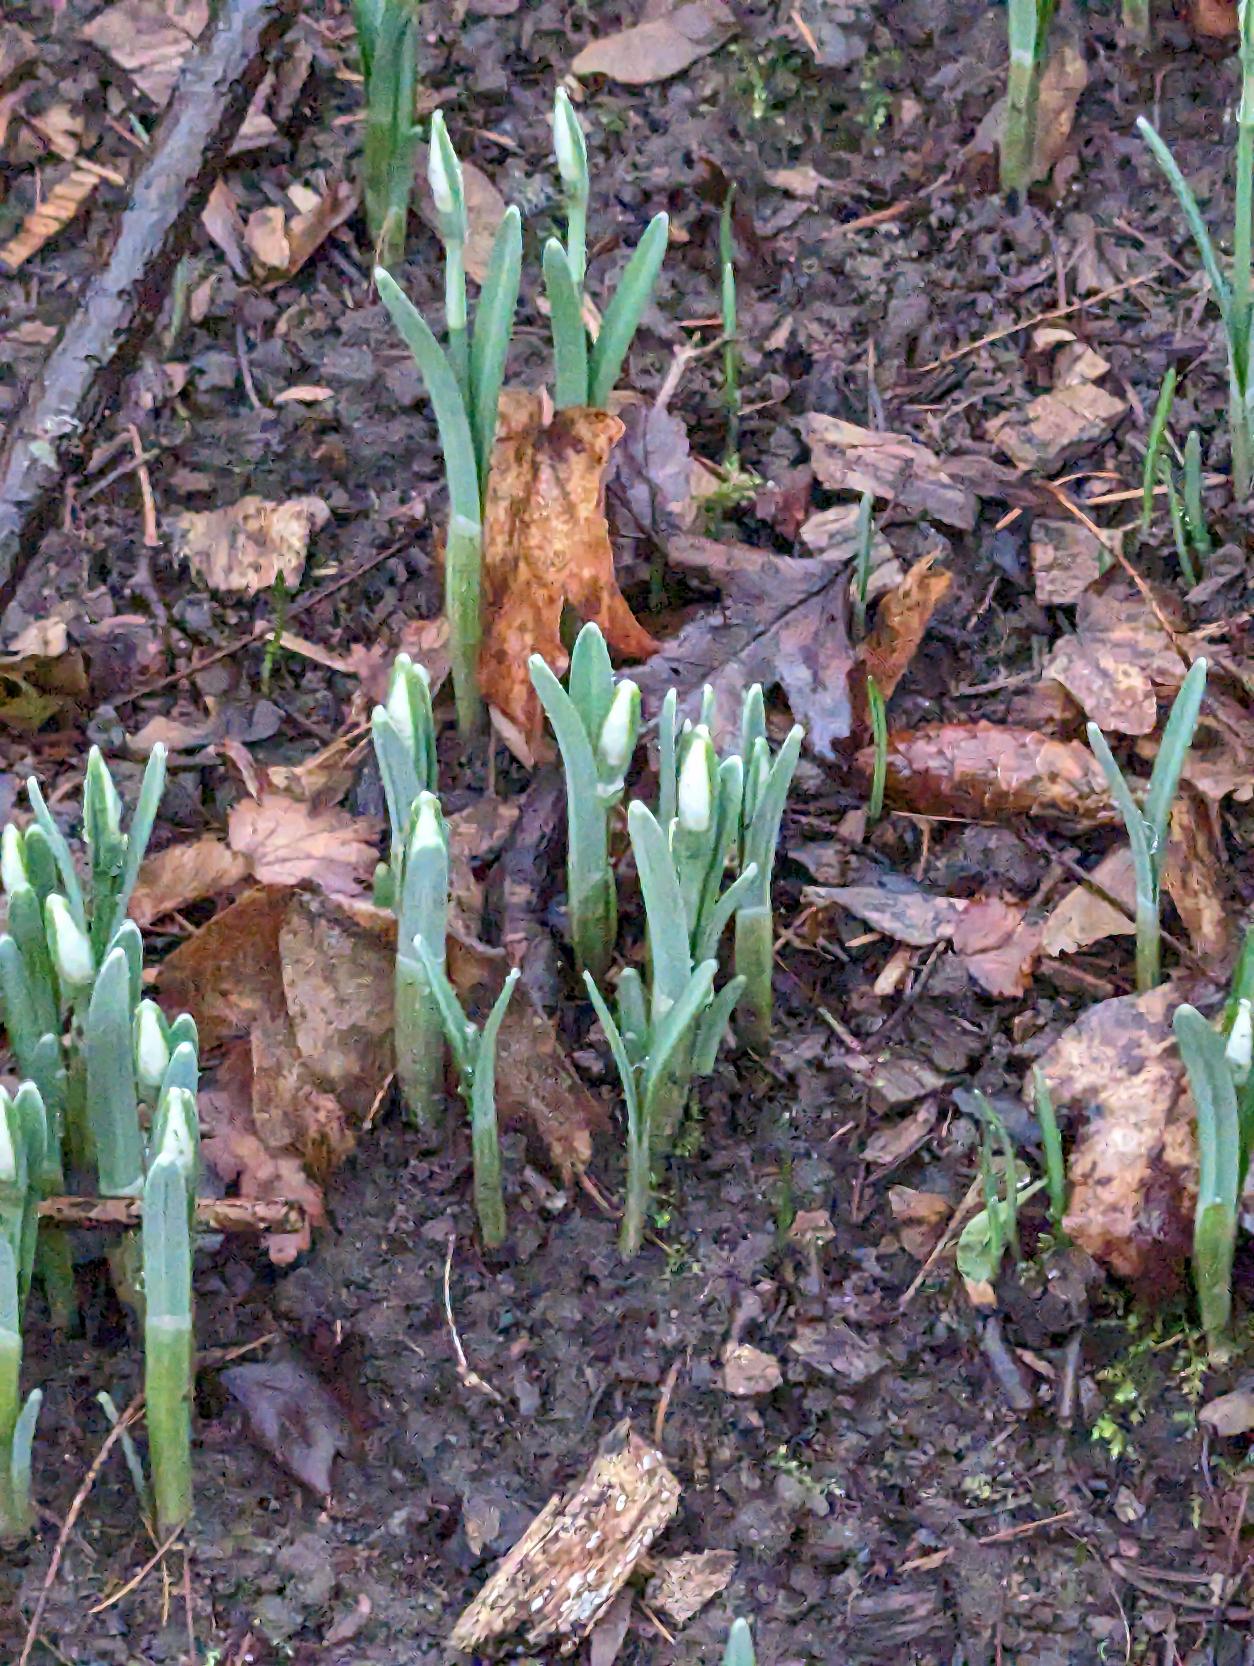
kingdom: Plantae
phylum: Tracheophyta
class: Liliopsida
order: Asparagales
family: Amaryllidaceae
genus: Galanthus
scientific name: Galanthus nivalis
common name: Vintergæk
